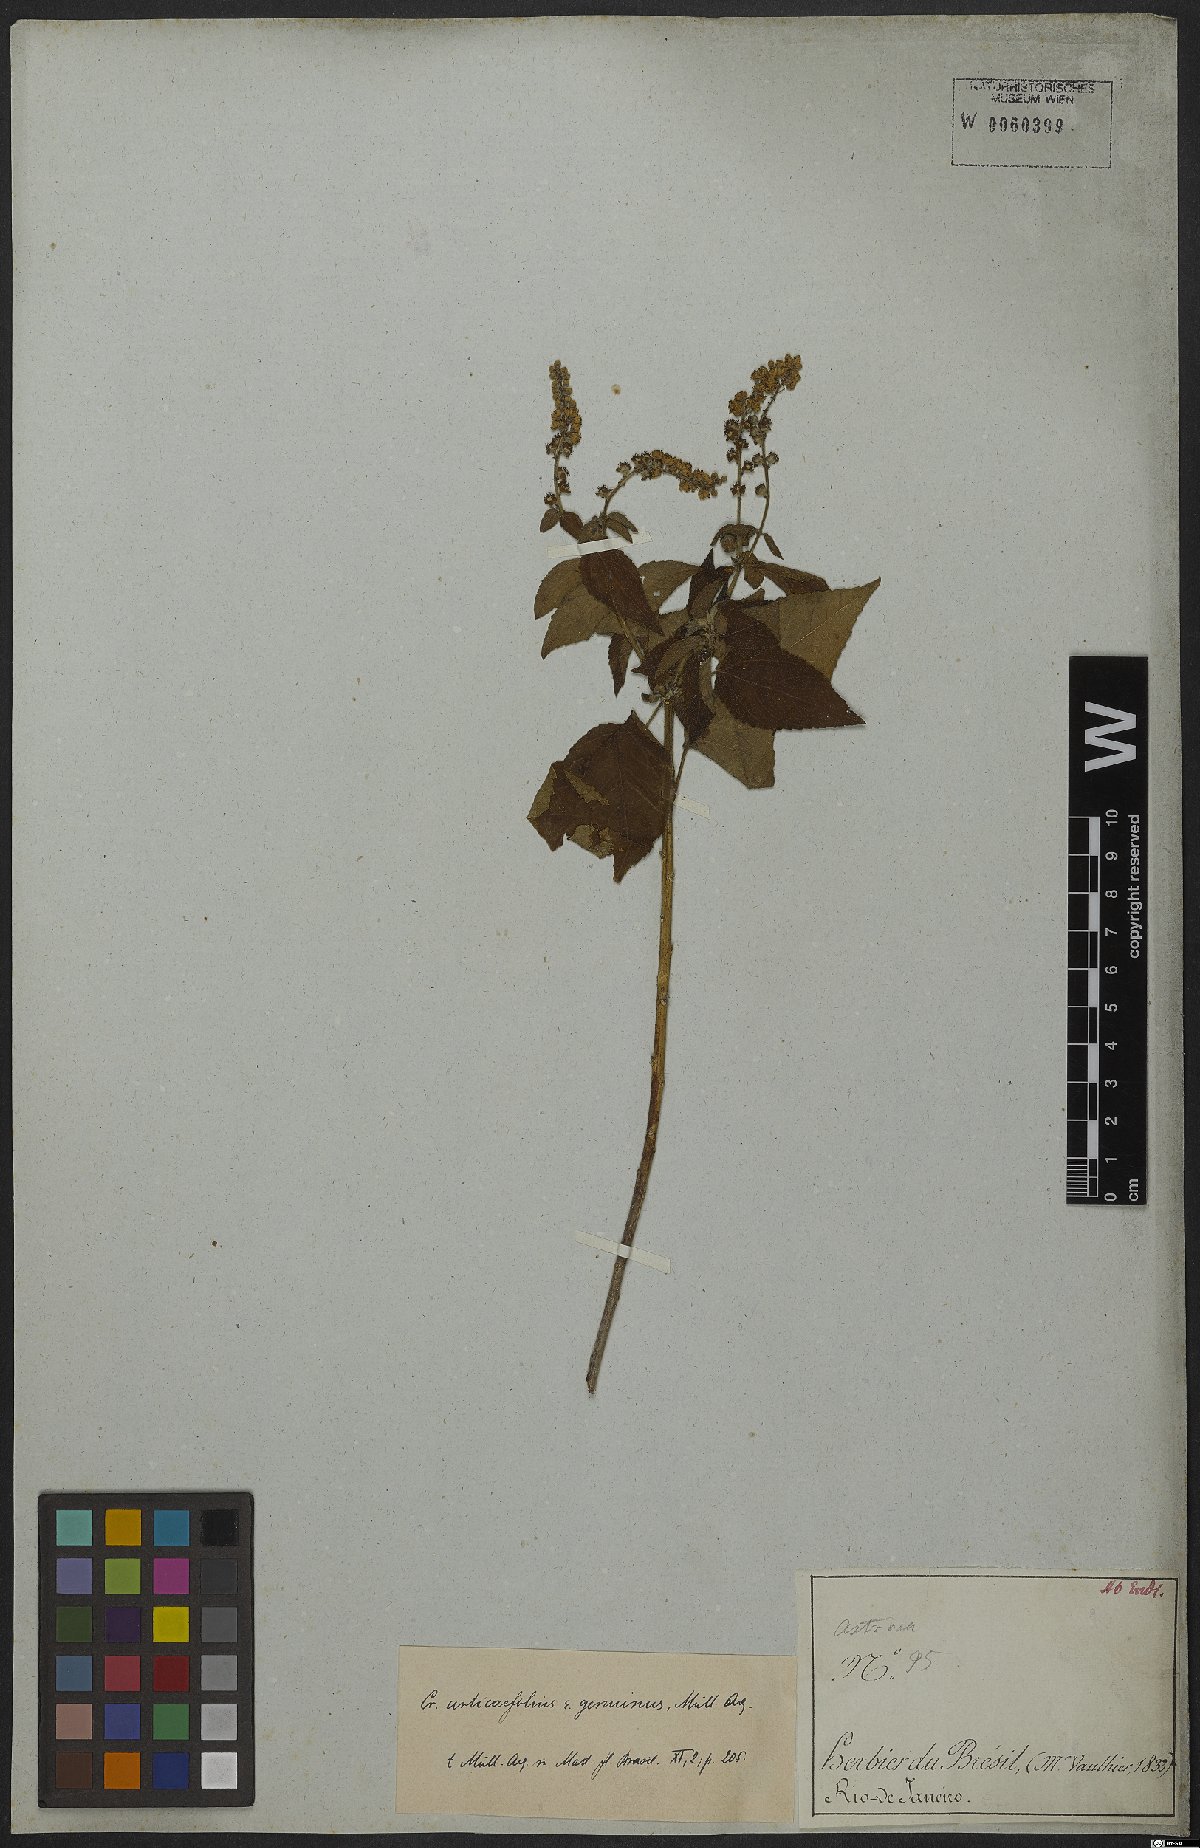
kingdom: Plantae
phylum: Tracheophyta
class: Magnoliopsida
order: Malpighiales
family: Euphorbiaceae
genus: Croton
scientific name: Croton urticifolius
